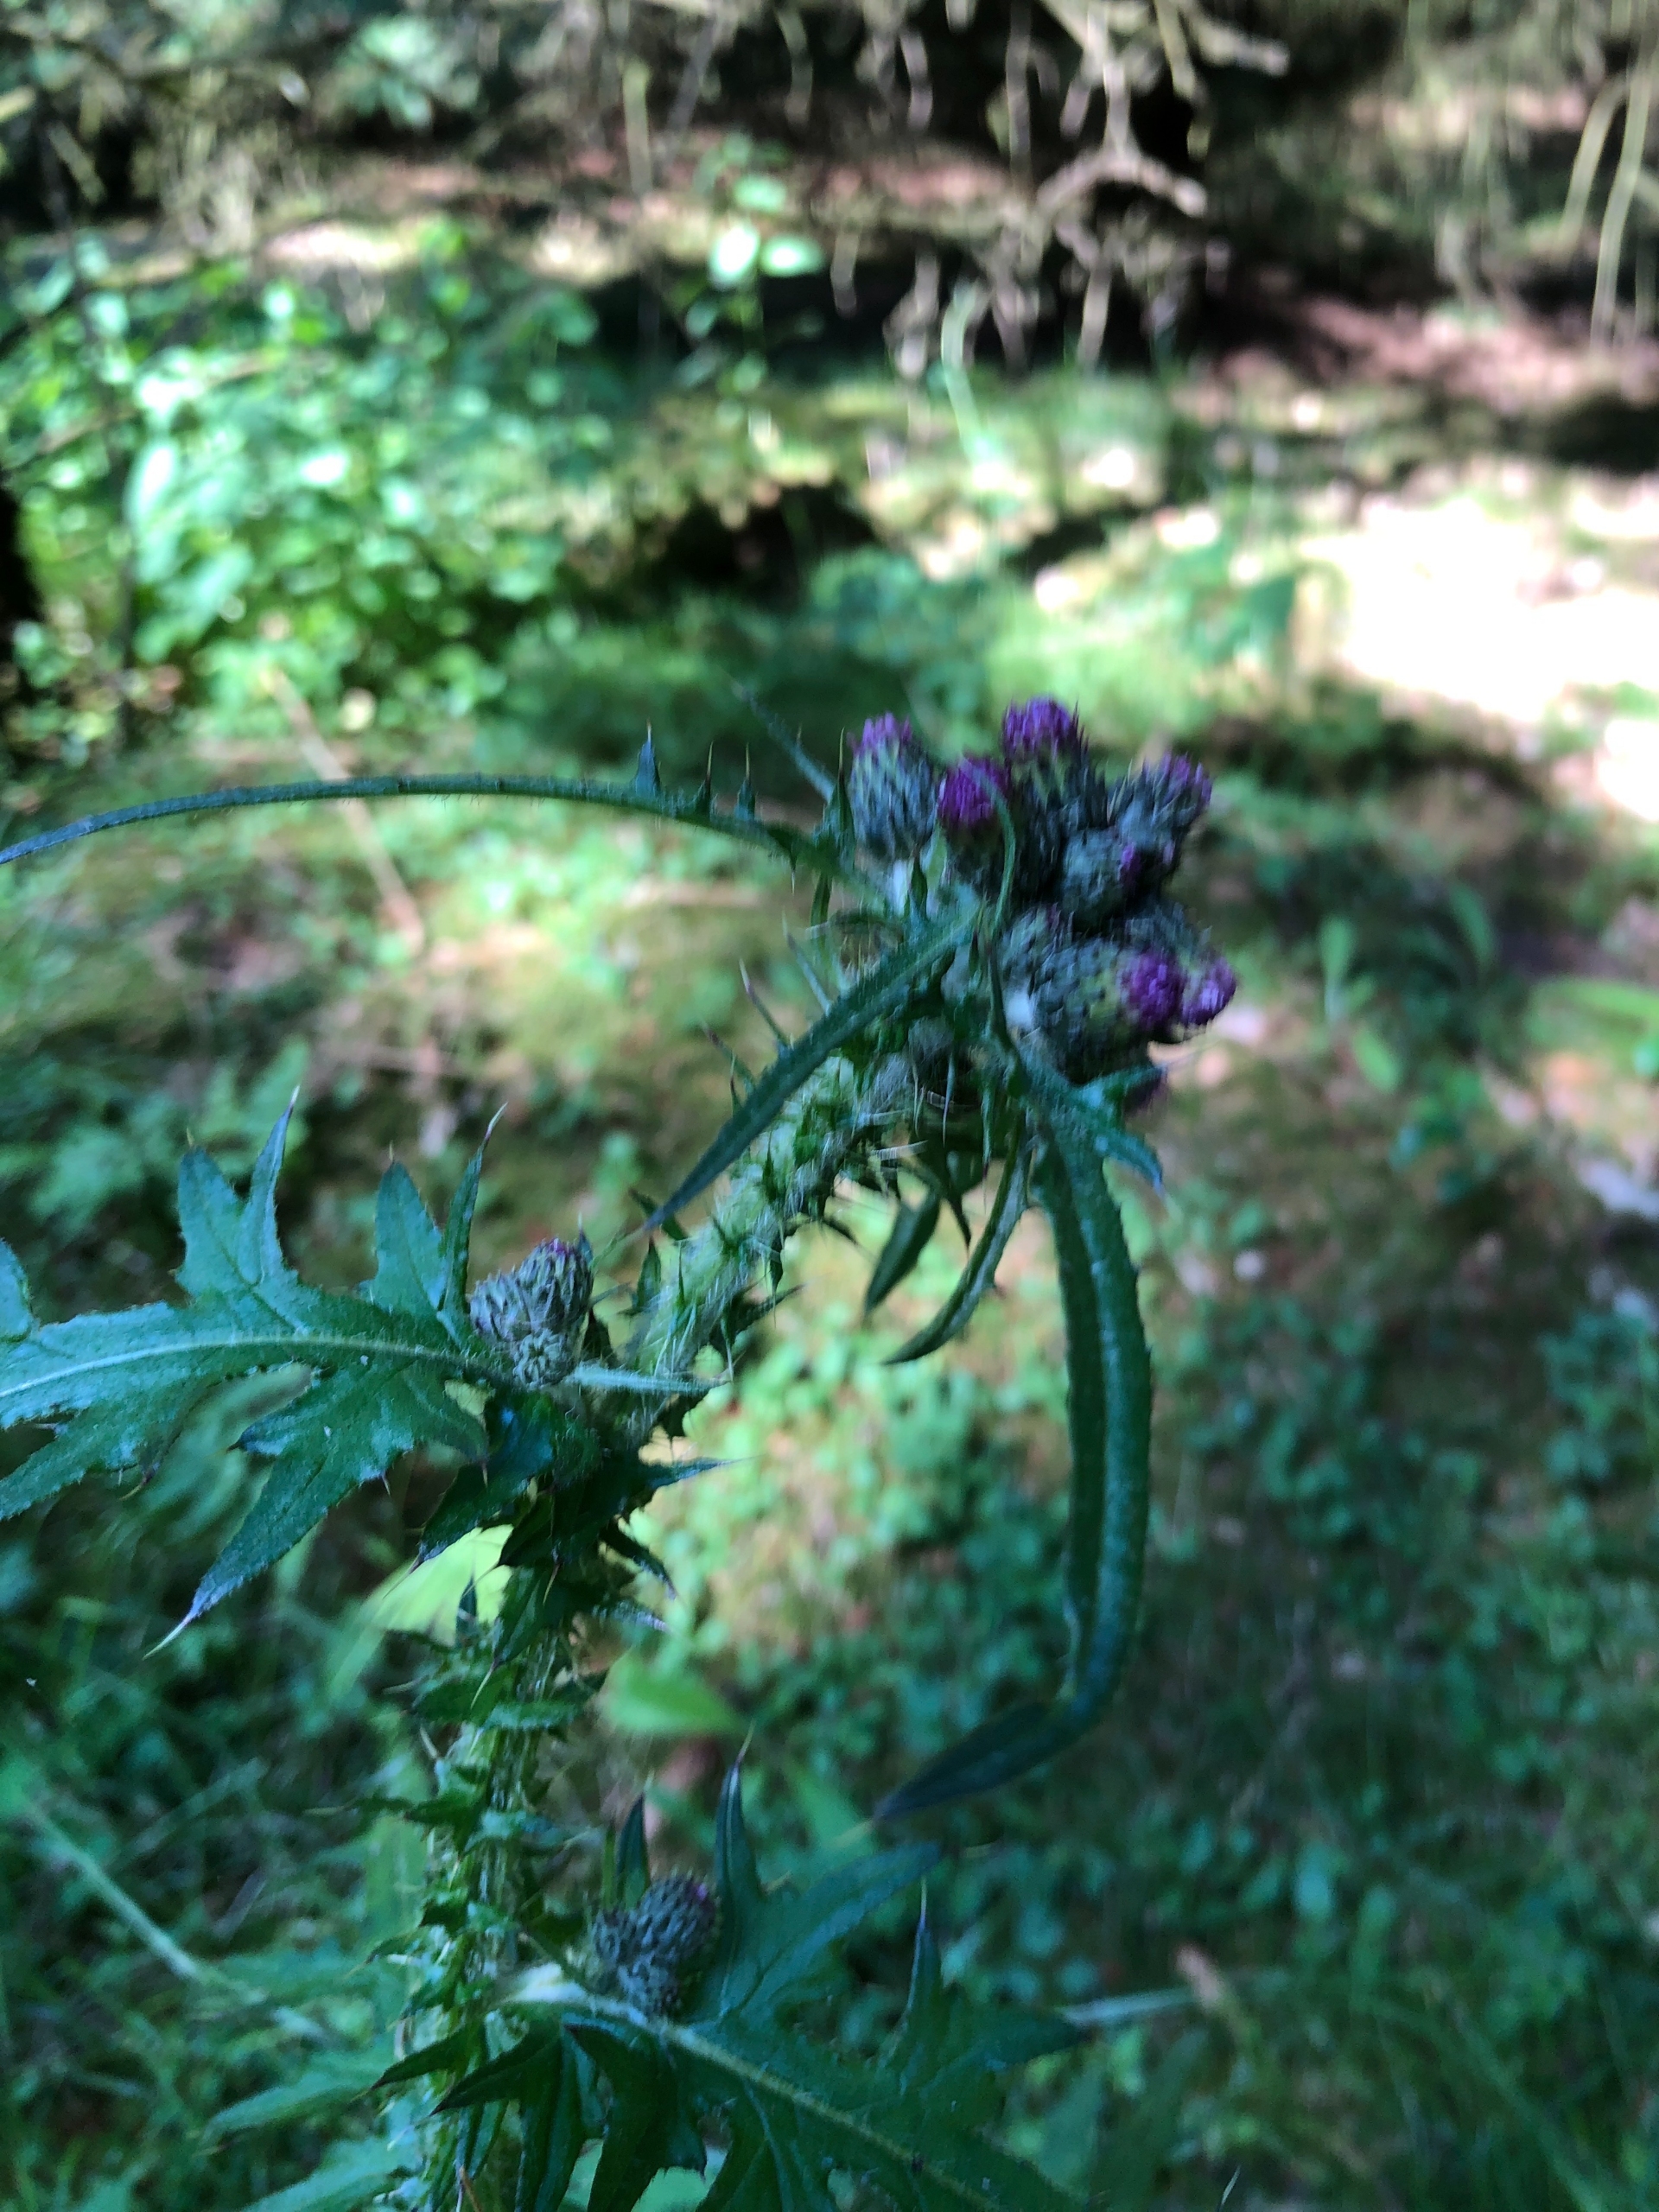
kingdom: Plantae
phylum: Tracheophyta
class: Magnoliopsida
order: Asterales
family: Asteraceae
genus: Cirsium
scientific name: Cirsium palustre
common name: Kær-tidsel
